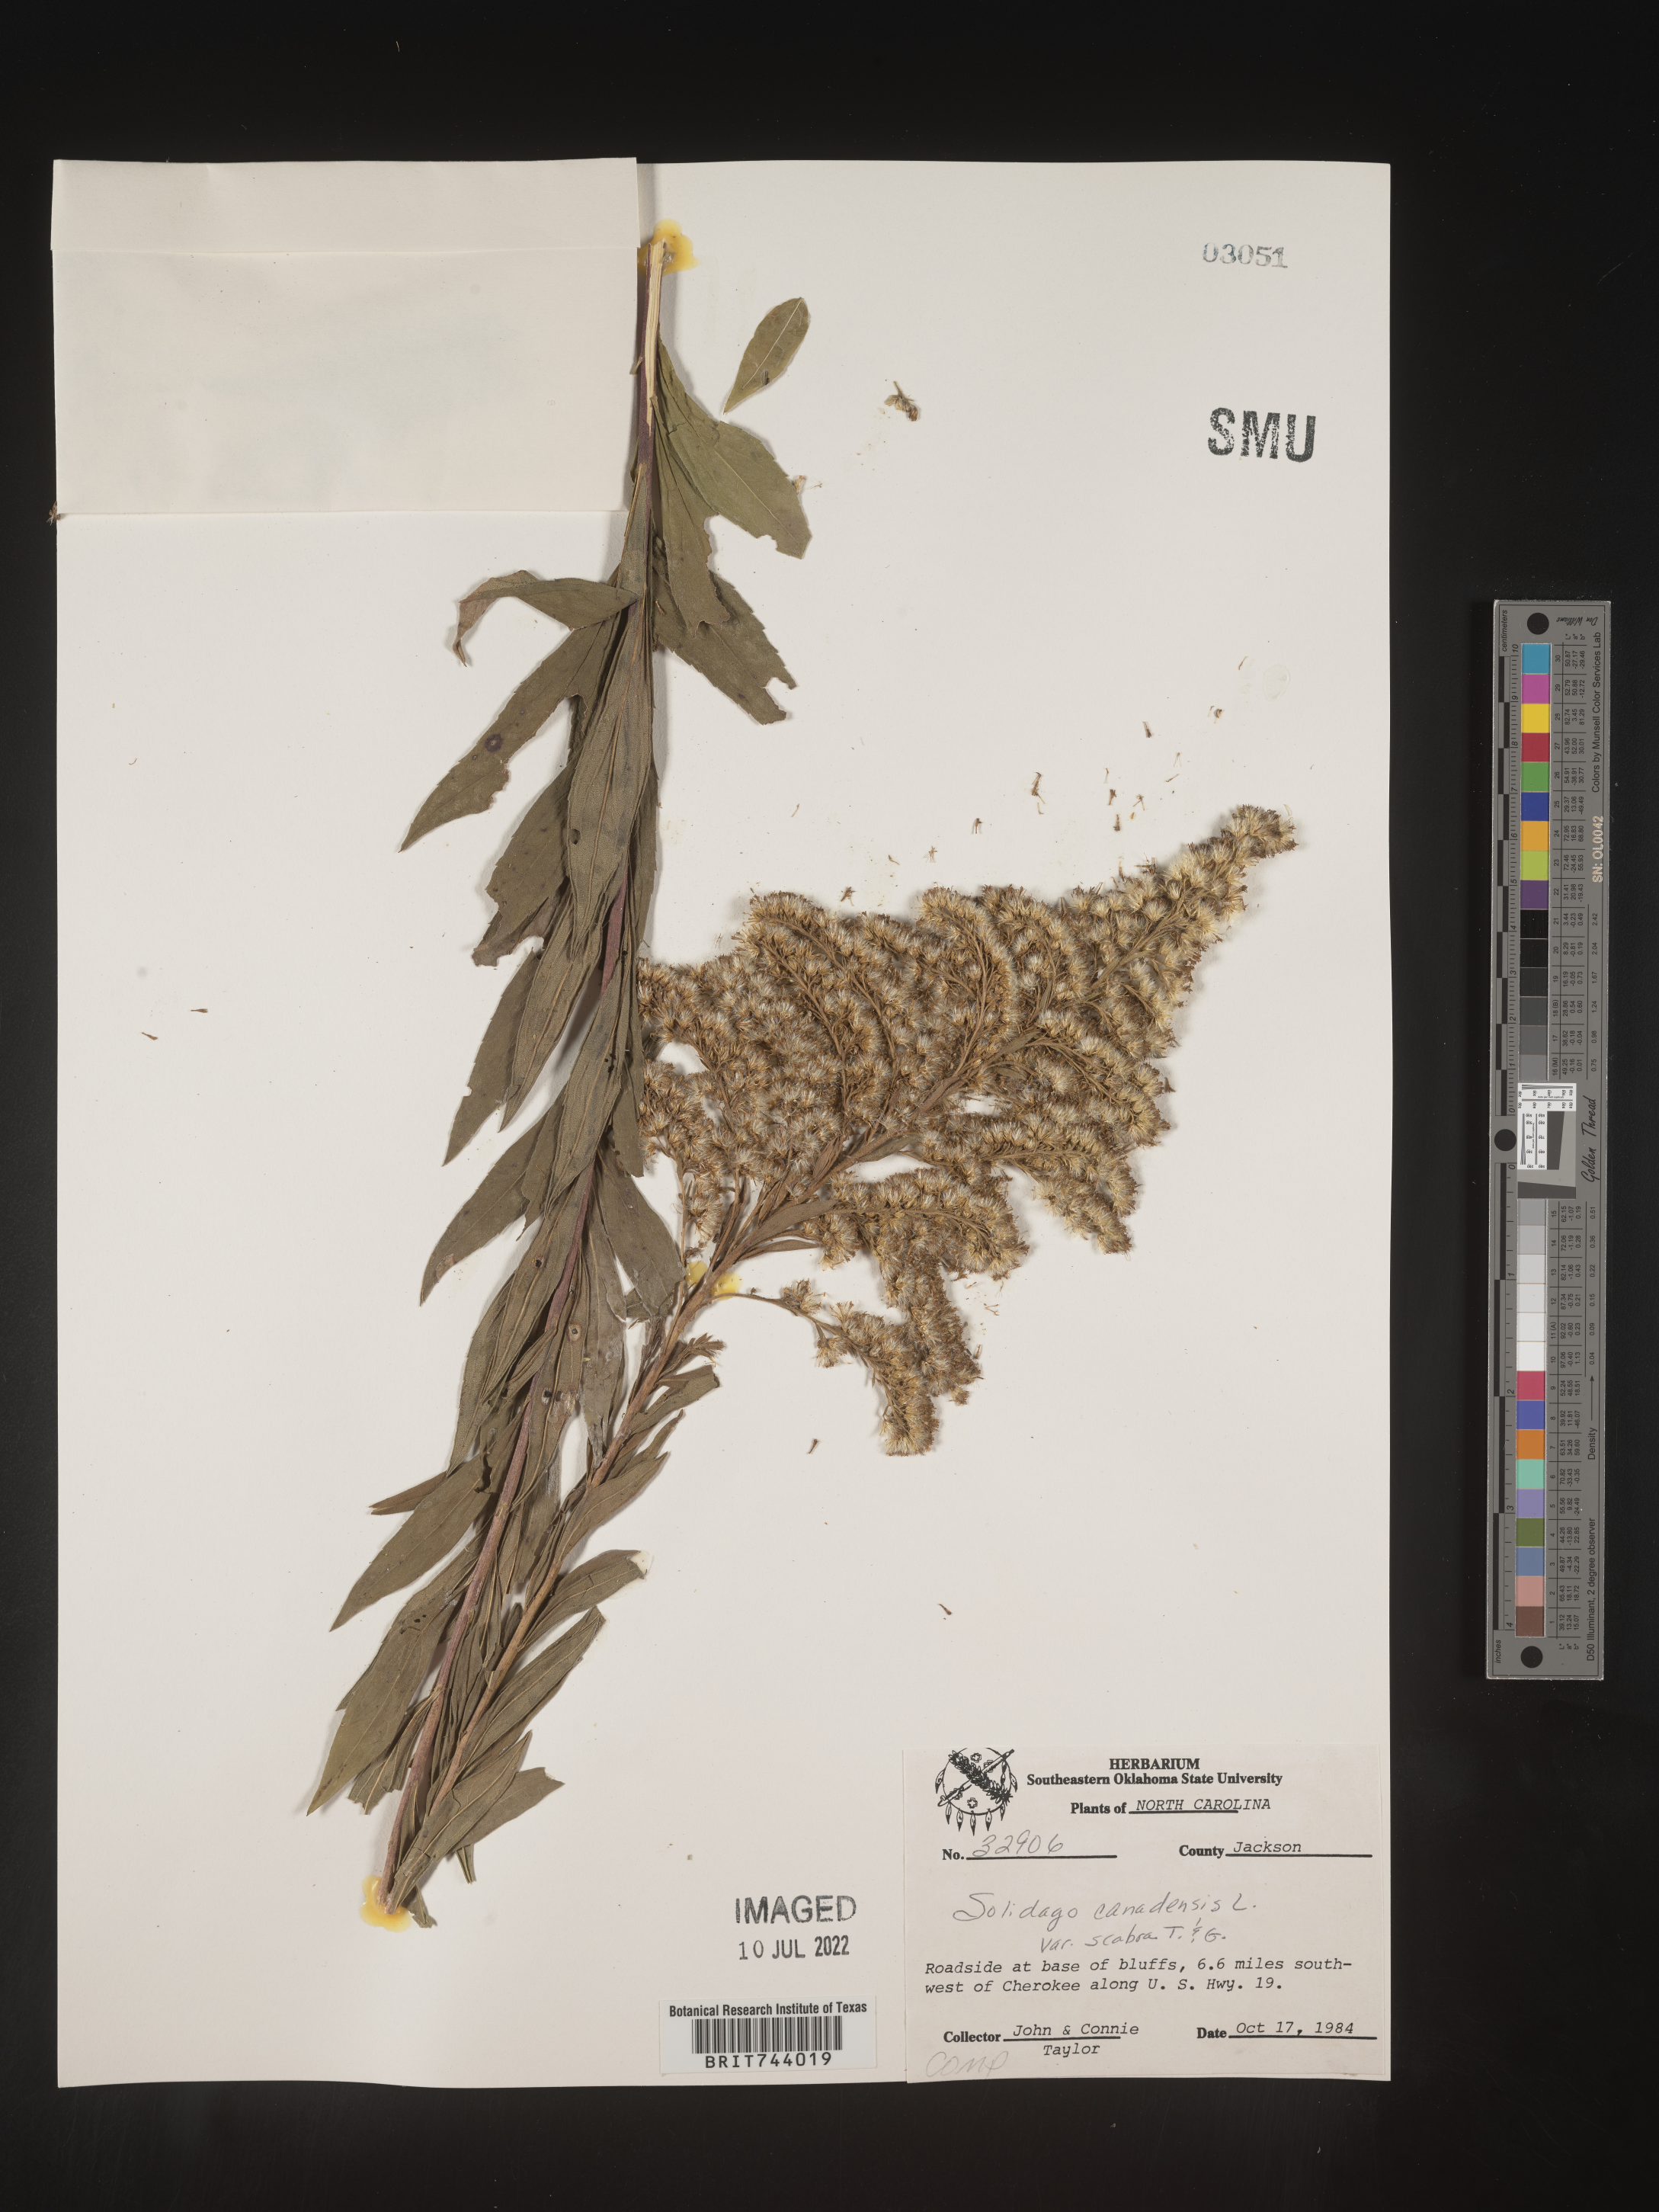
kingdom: Plantae
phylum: Tracheophyta
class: Magnoliopsida
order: Asterales
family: Asteraceae
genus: Solidago
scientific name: Solidago altissima
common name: Late goldenrod
